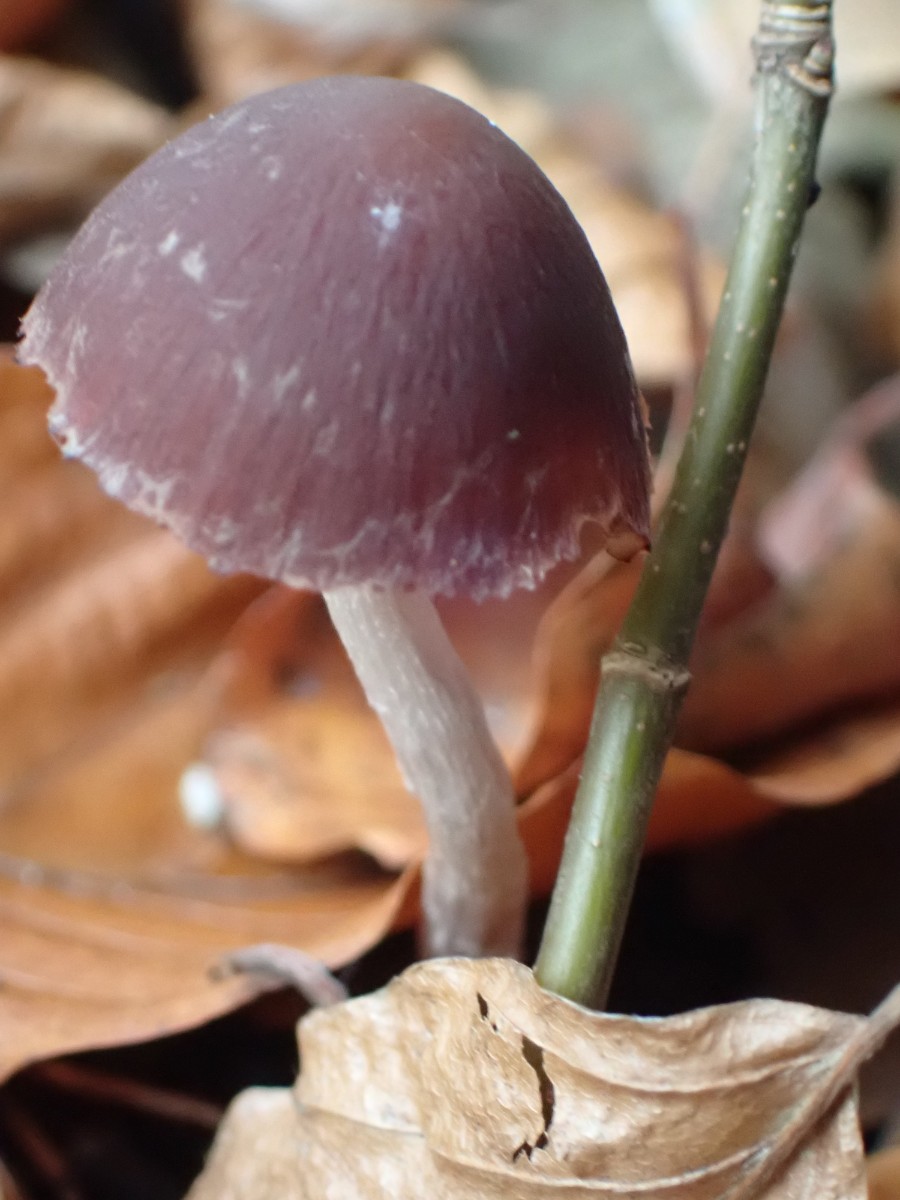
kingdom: Fungi
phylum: Basidiomycota
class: Agaricomycetes
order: Agaricales
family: Psathyrellaceae
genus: Psathyrella
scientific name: Psathyrella bipellis
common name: vinrød mørkhat
